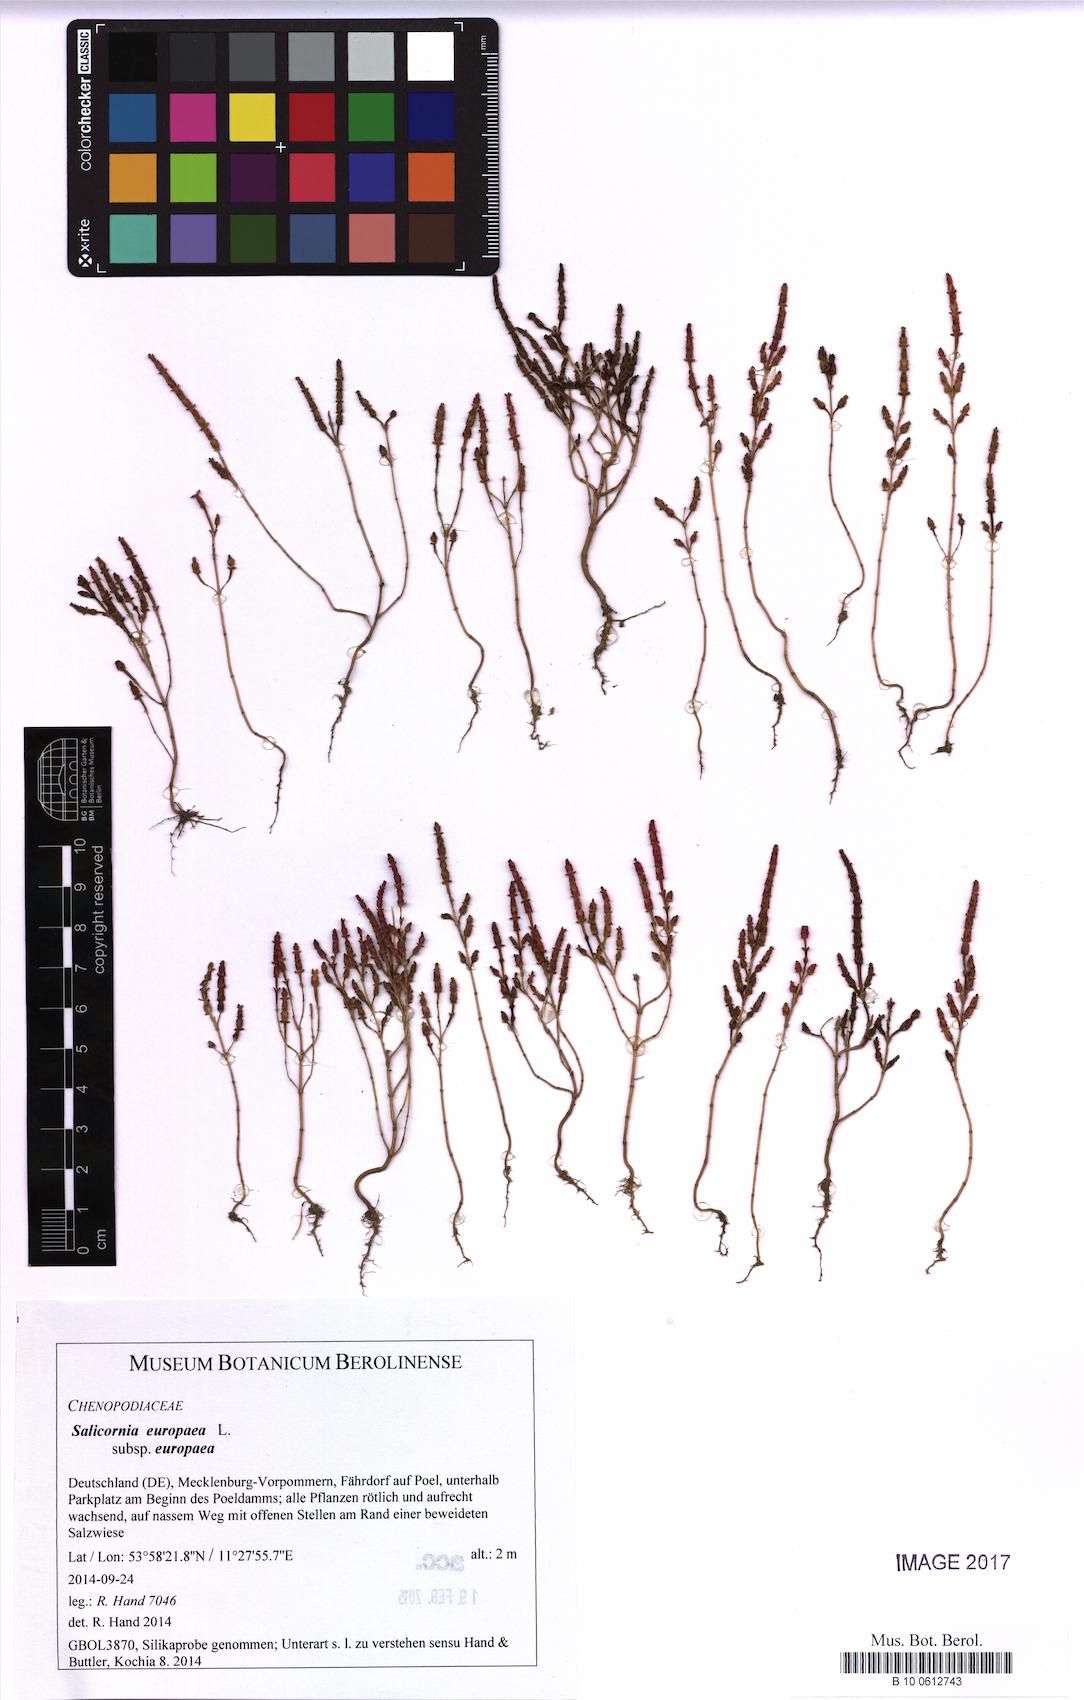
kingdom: Plantae
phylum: Tracheophyta
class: Magnoliopsida
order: Caryophyllales
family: Amaranthaceae
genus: Salicornia
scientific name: Salicornia europaea
